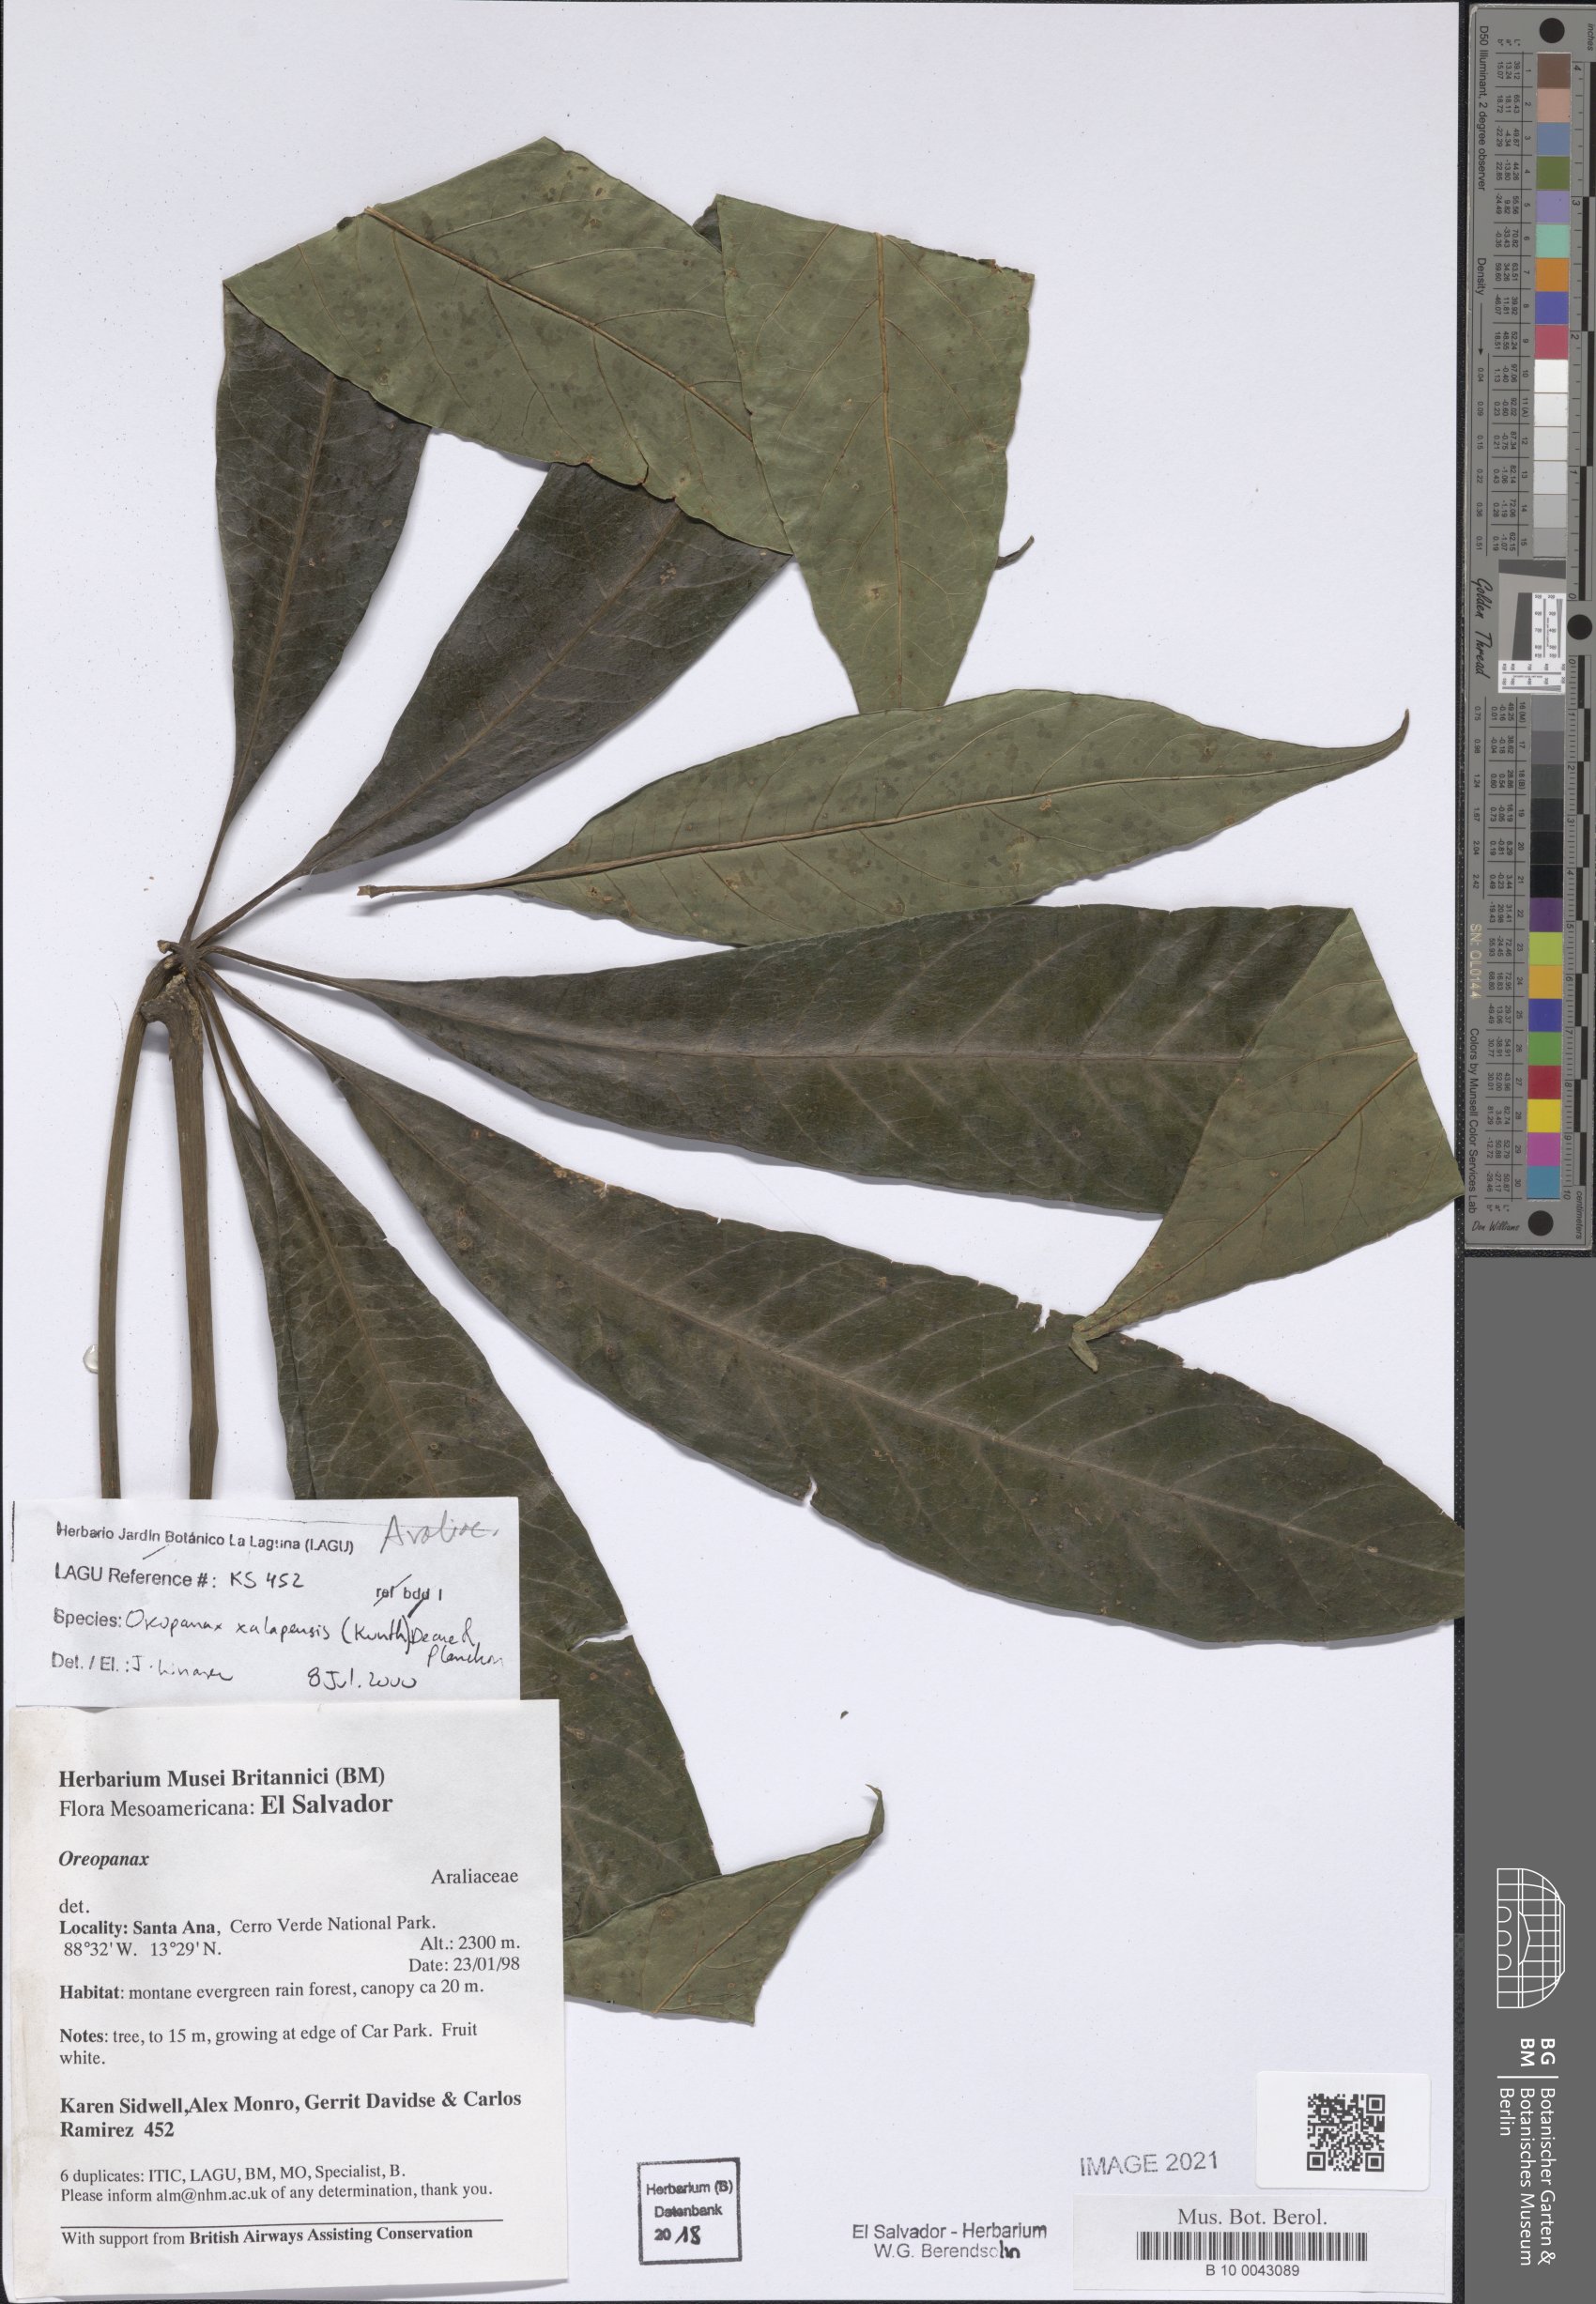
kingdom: Plantae
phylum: Tracheophyta
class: Magnoliopsida
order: Apiales
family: Araliaceae
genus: Oreopanax
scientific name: Oreopanax xalapensis
